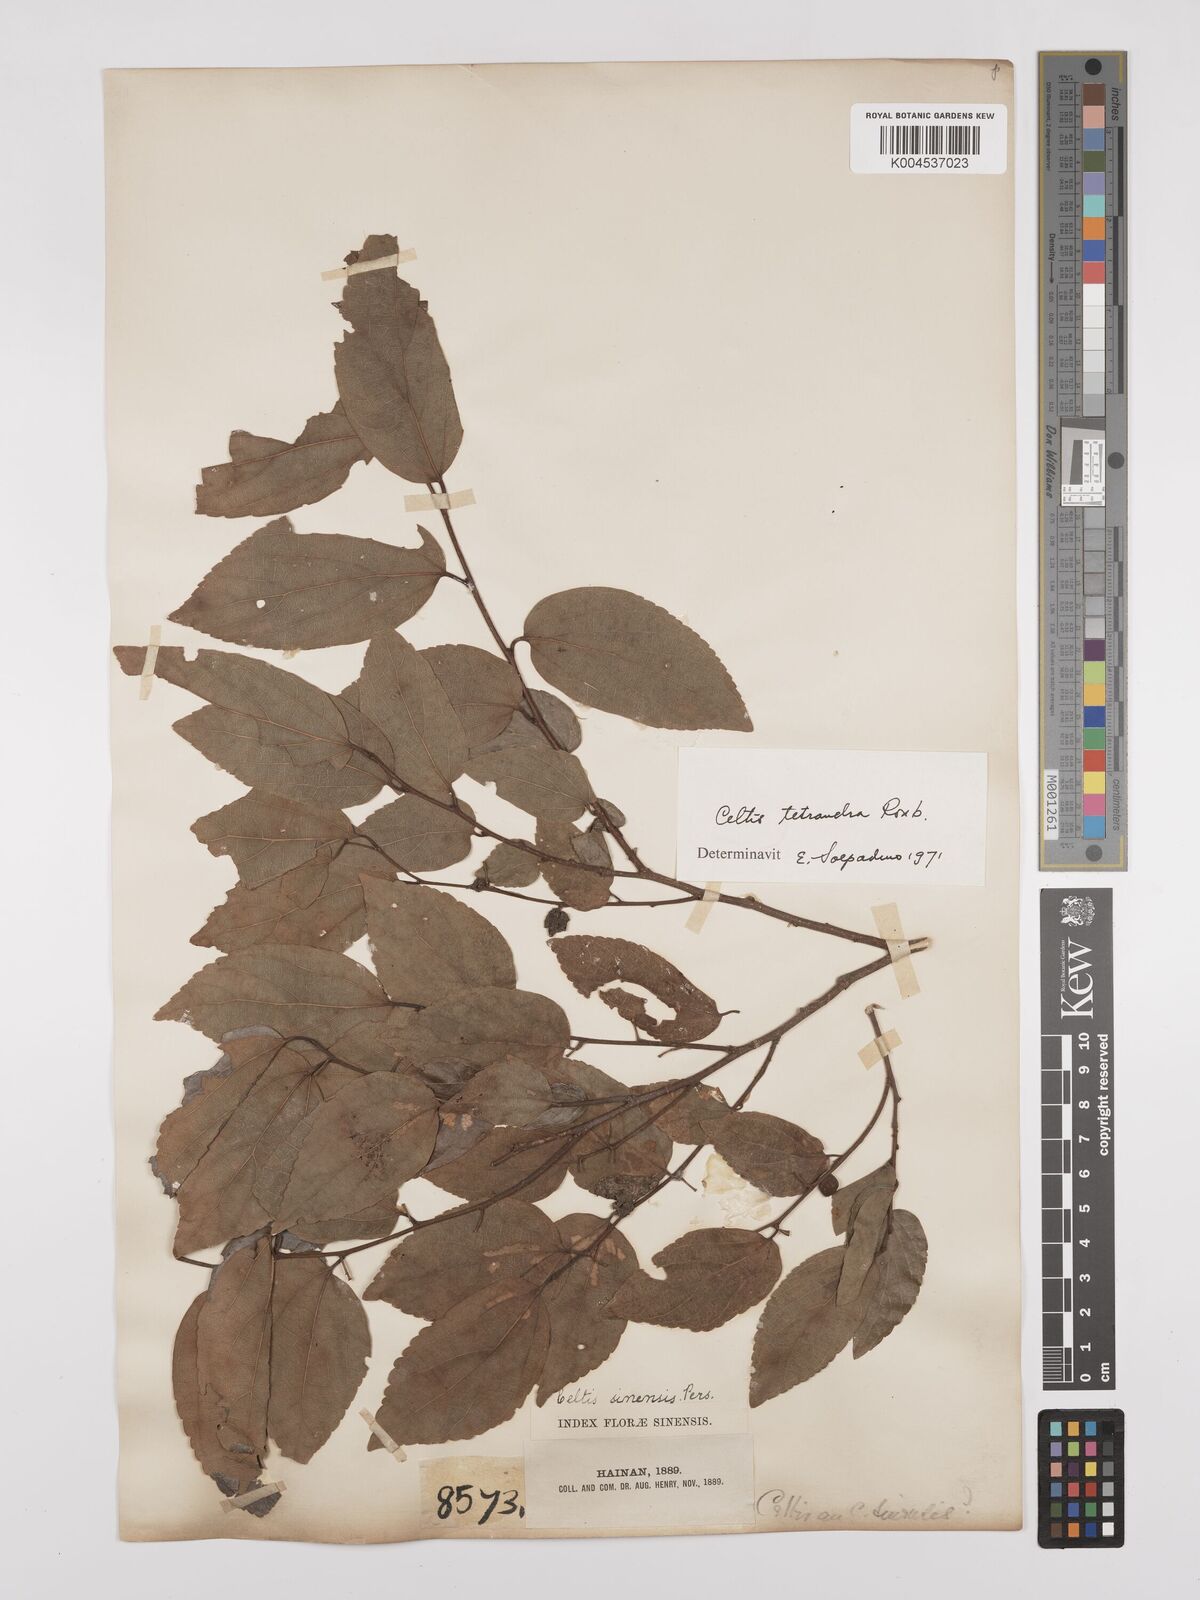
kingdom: Plantae
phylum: Tracheophyta
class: Magnoliopsida
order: Rosales
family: Cannabaceae
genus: Celtis
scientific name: Celtis tetrandra
